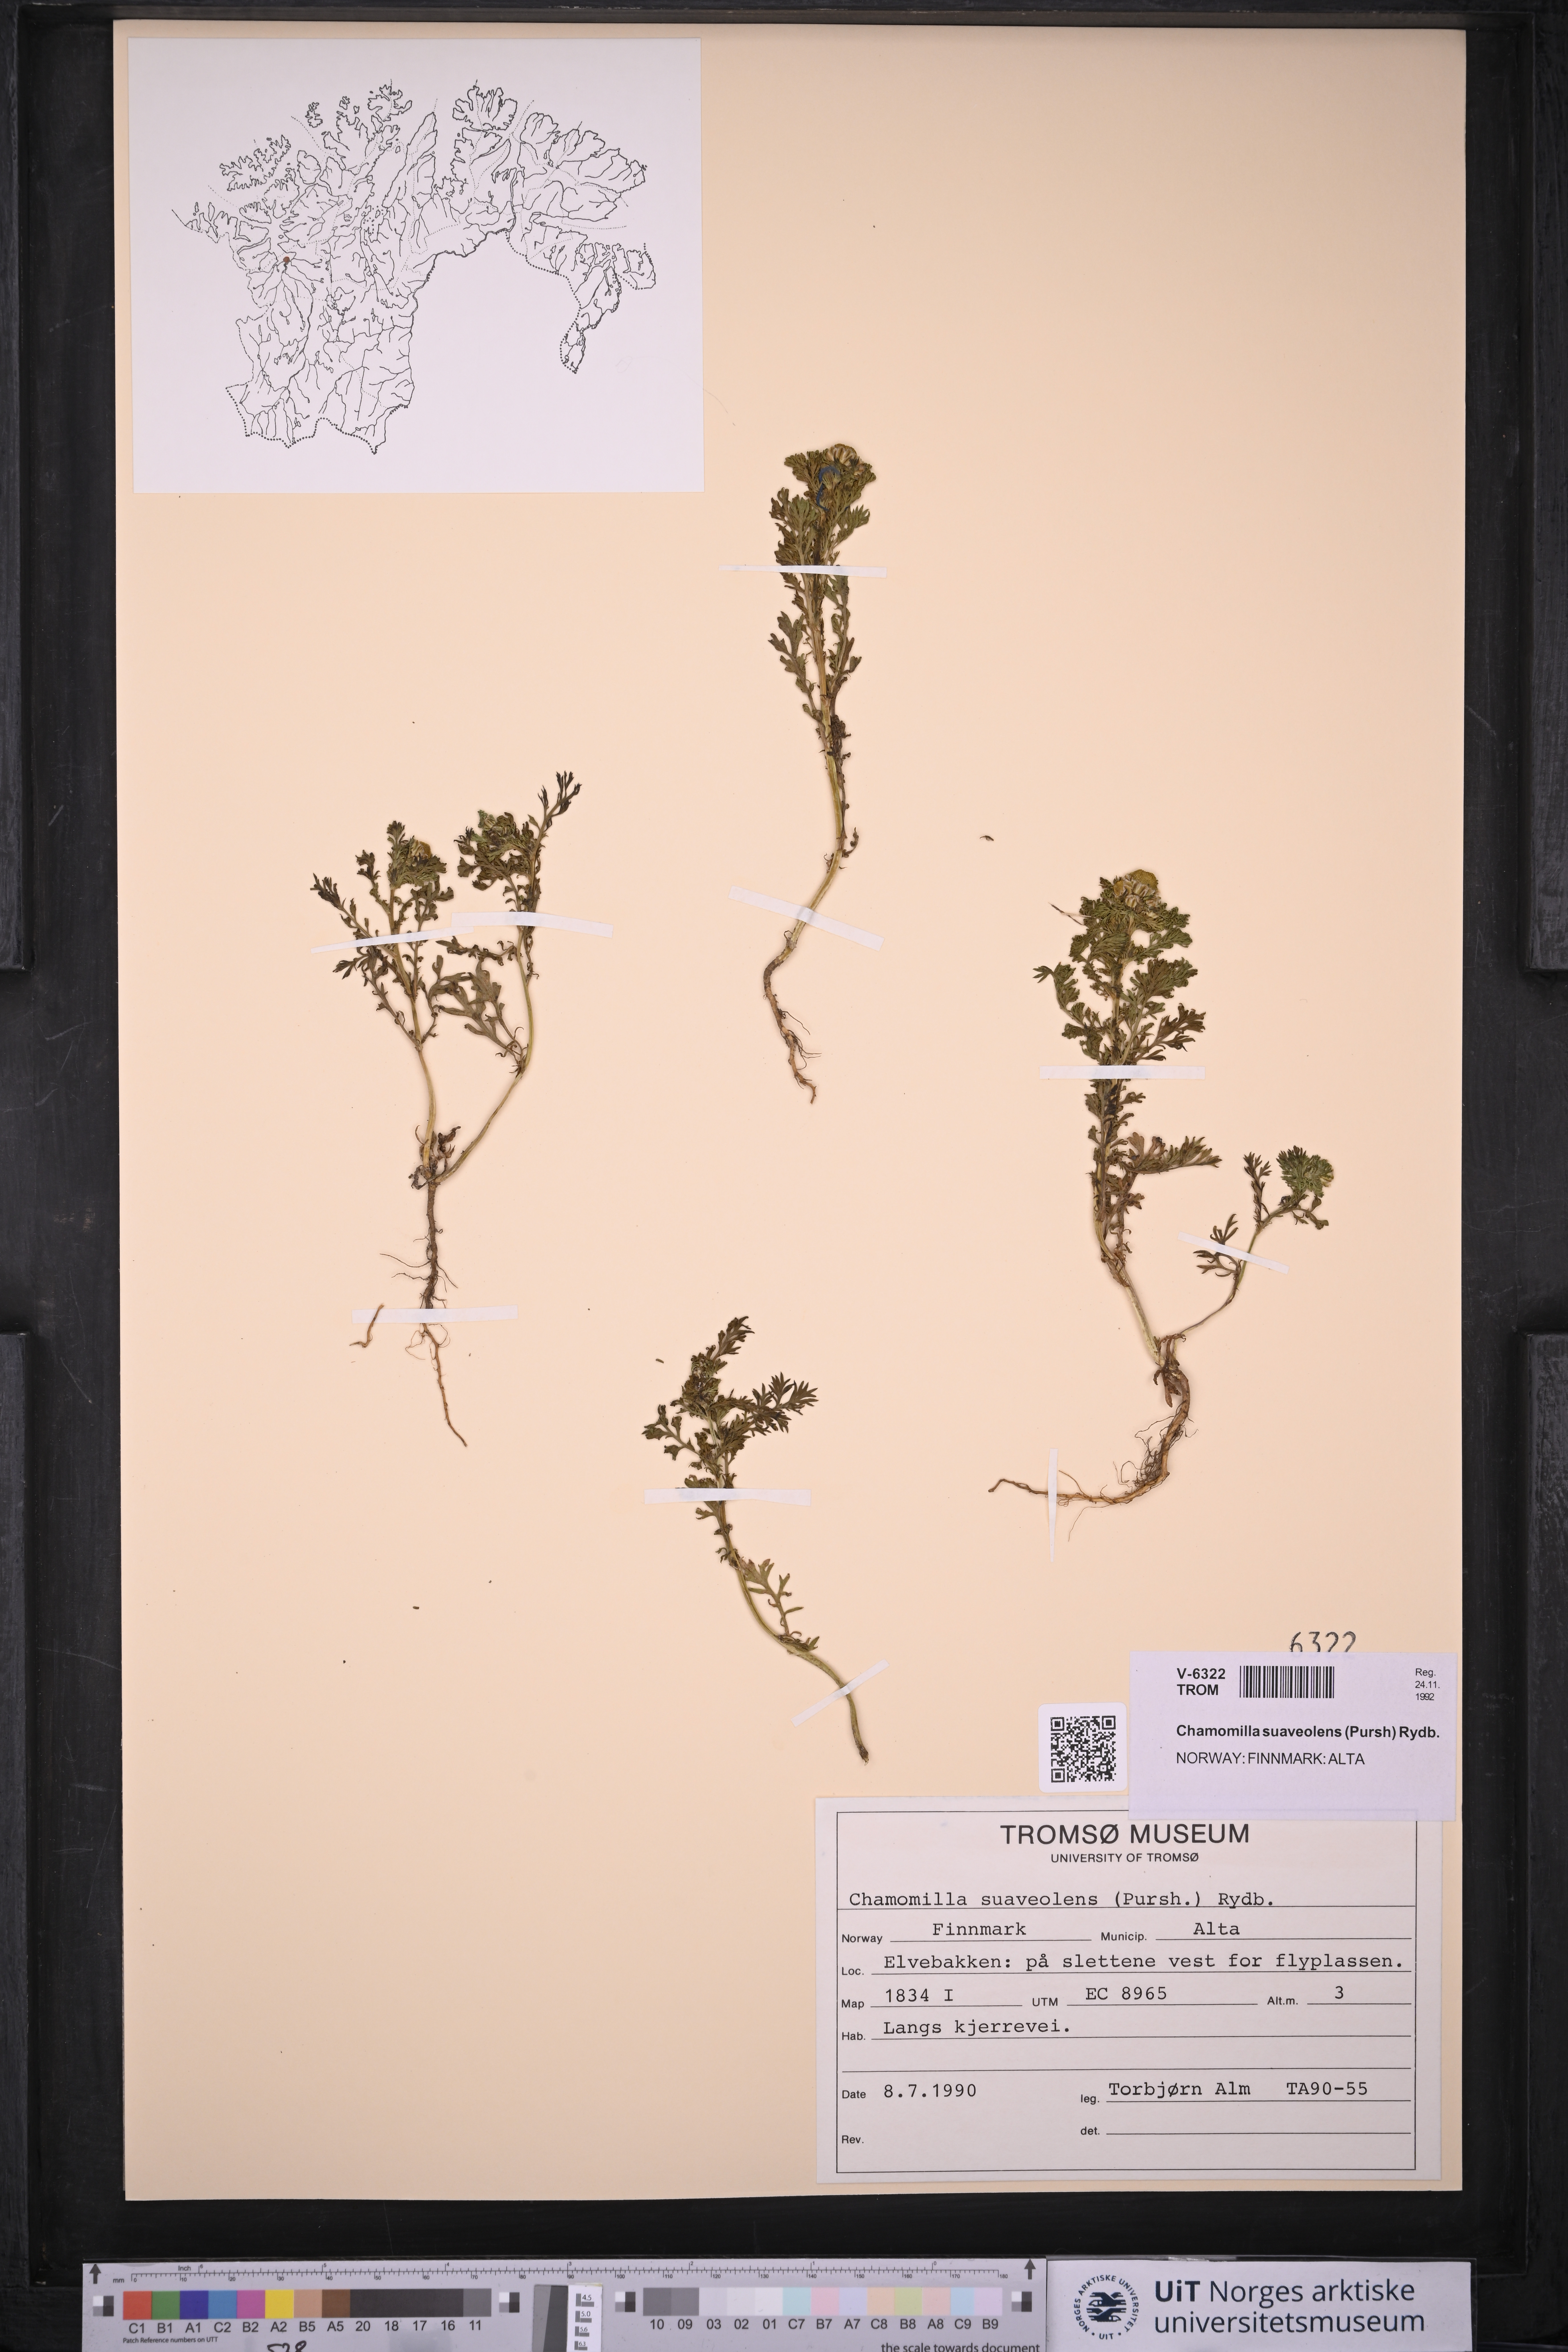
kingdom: Plantae
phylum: Tracheophyta
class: Magnoliopsida
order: Asterales
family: Asteraceae
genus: Matricaria
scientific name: Matricaria discoidea
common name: Disc mayweed
